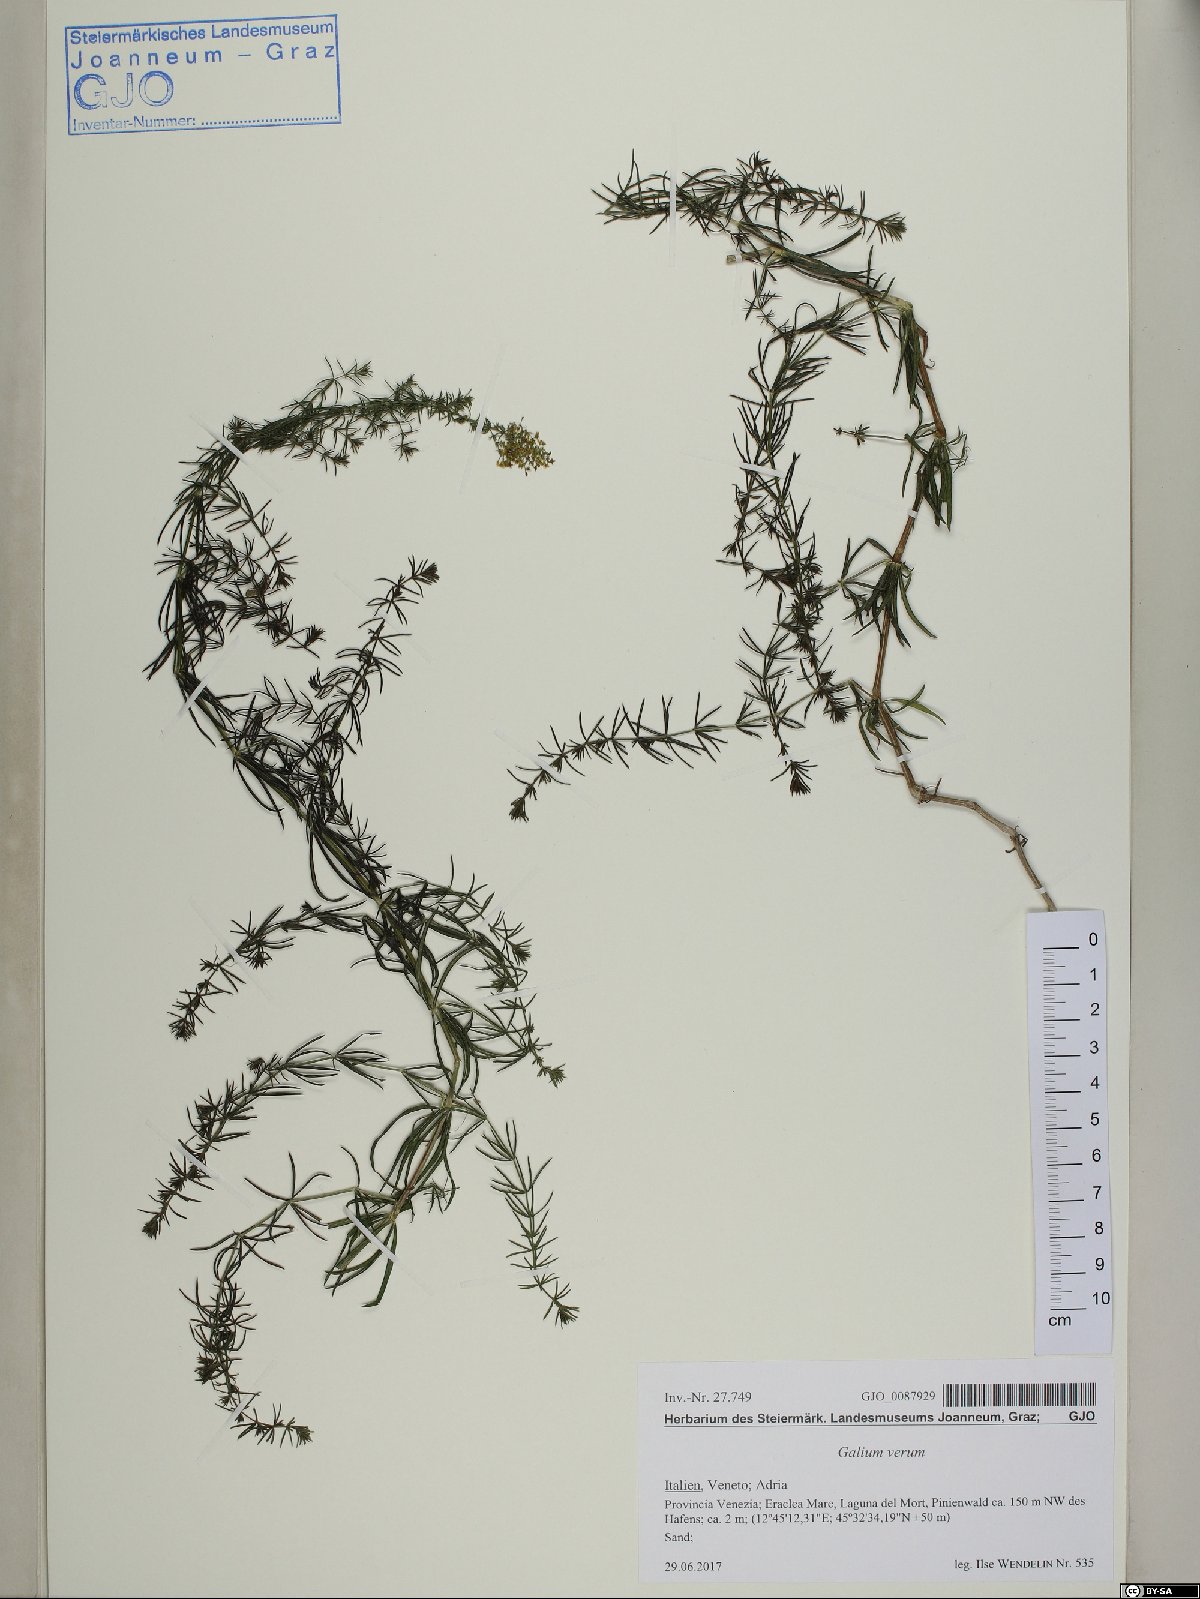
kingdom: Plantae
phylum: Tracheophyta
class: Magnoliopsida
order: Gentianales
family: Rubiaceae
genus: Galium
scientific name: Galium verum
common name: Lady's bedstraw
